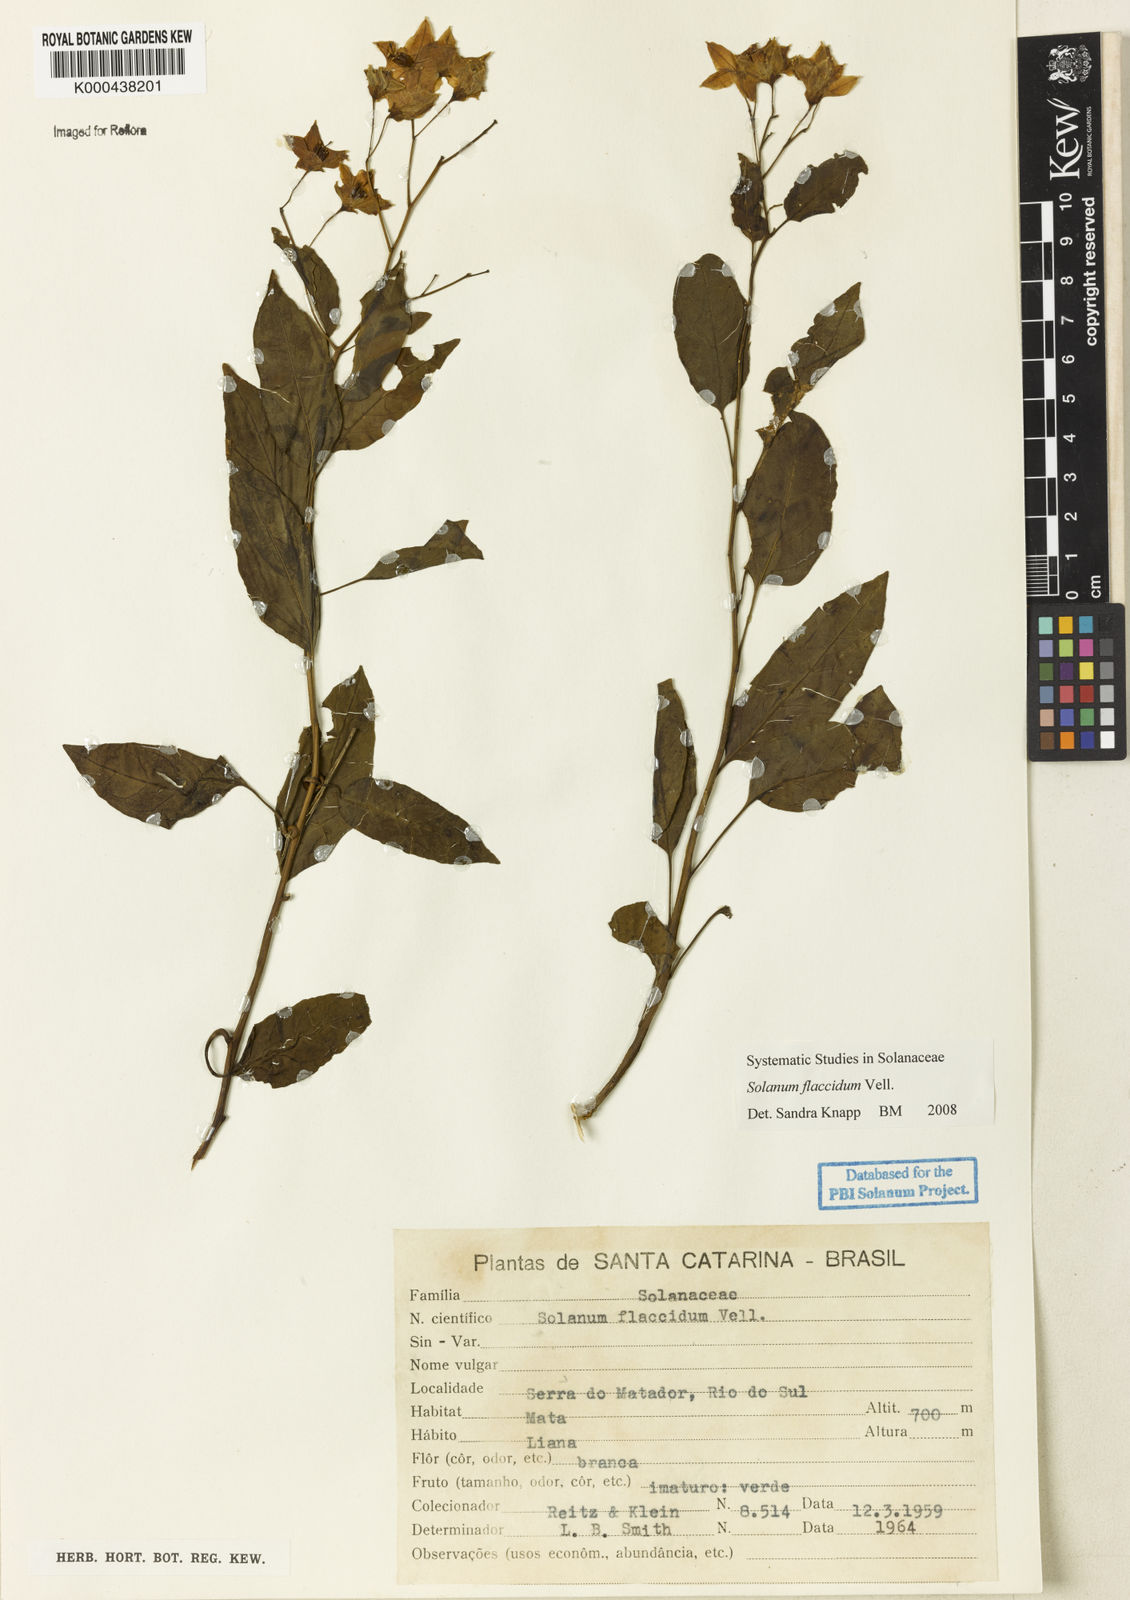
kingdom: Plantae
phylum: Tracheophyta
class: Magnoliopsida
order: Solanales
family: Solanaceae
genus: Solanum
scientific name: Solanum flaccidum
